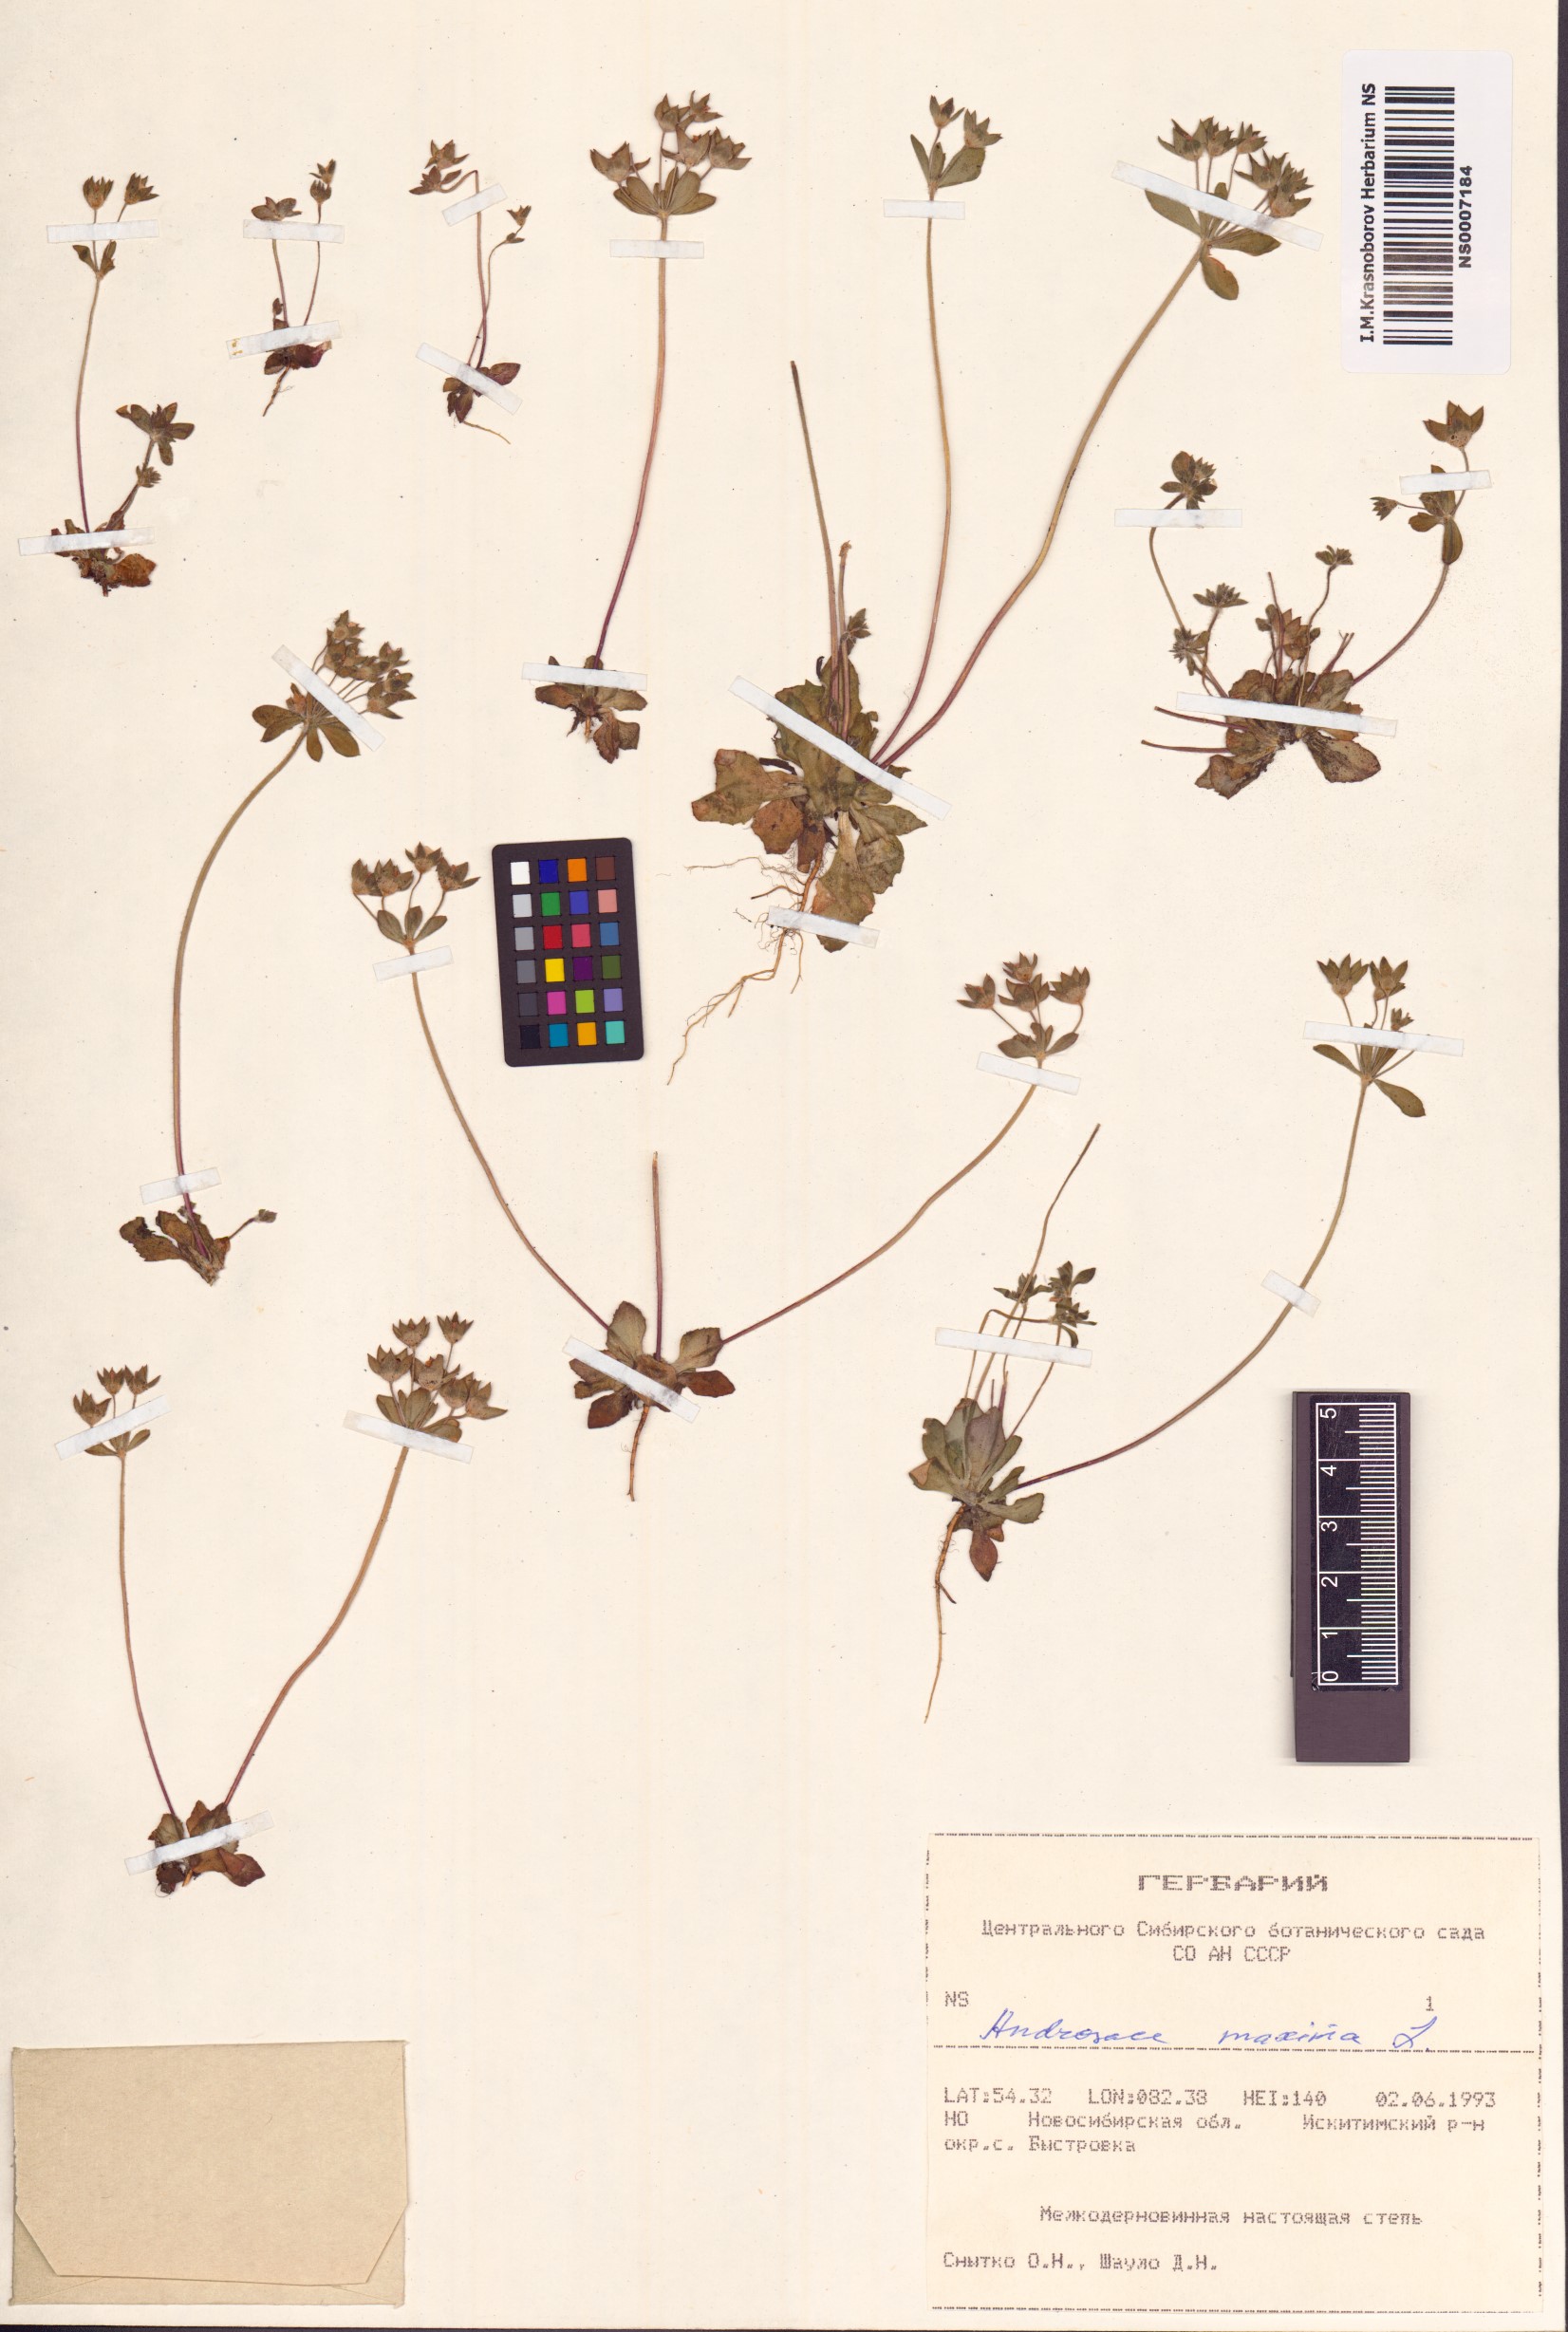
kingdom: Plantae
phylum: Tracheophyta
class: Magnoliopsida
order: Ericales
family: Primulaceae
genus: Androsace
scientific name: Androsace maxima
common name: Annual androsace
